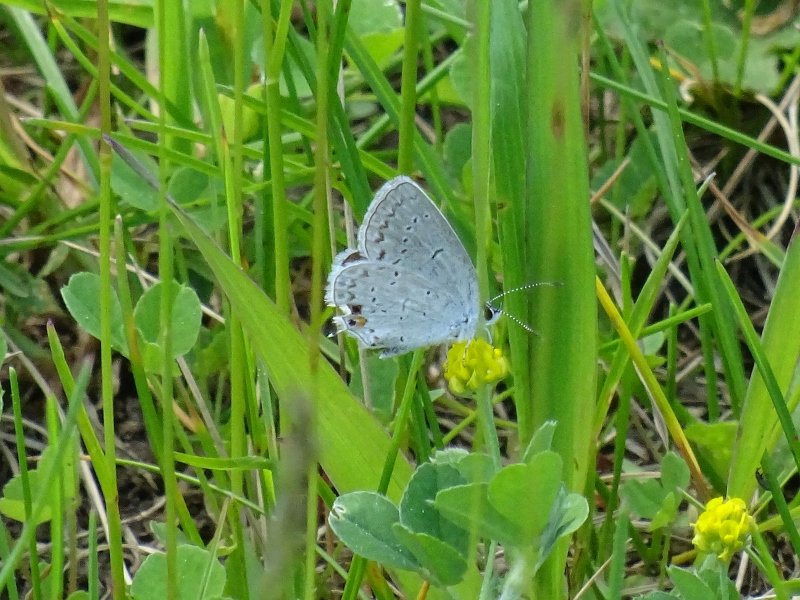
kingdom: Animalia
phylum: Arthropoda
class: Insecta
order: Lepidoptera
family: Lycaenidae
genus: Elkalyce
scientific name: Elkalyce comyntas
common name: Eastern Tailed-Blue
